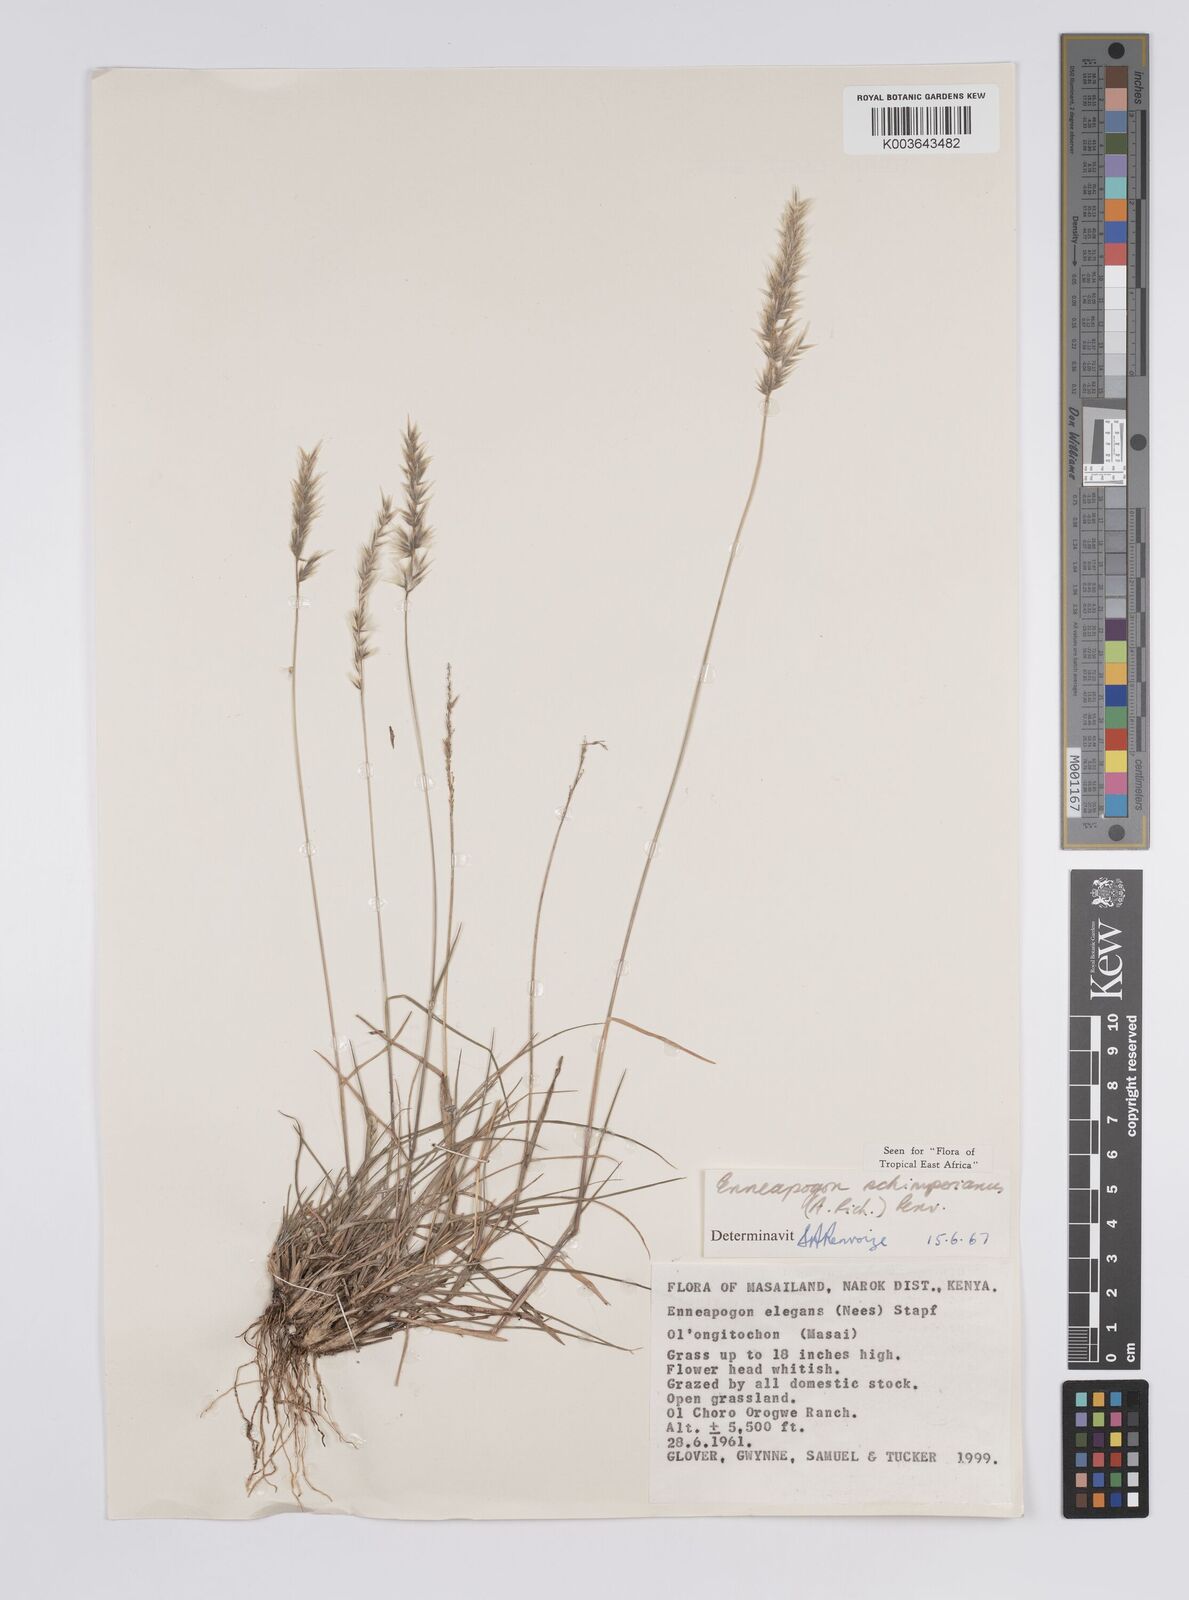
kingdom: Plantae
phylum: Tracheophyta
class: Liliopsida
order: Poales
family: Poaceae
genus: Enneapogon
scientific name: Enneapogon persicus
